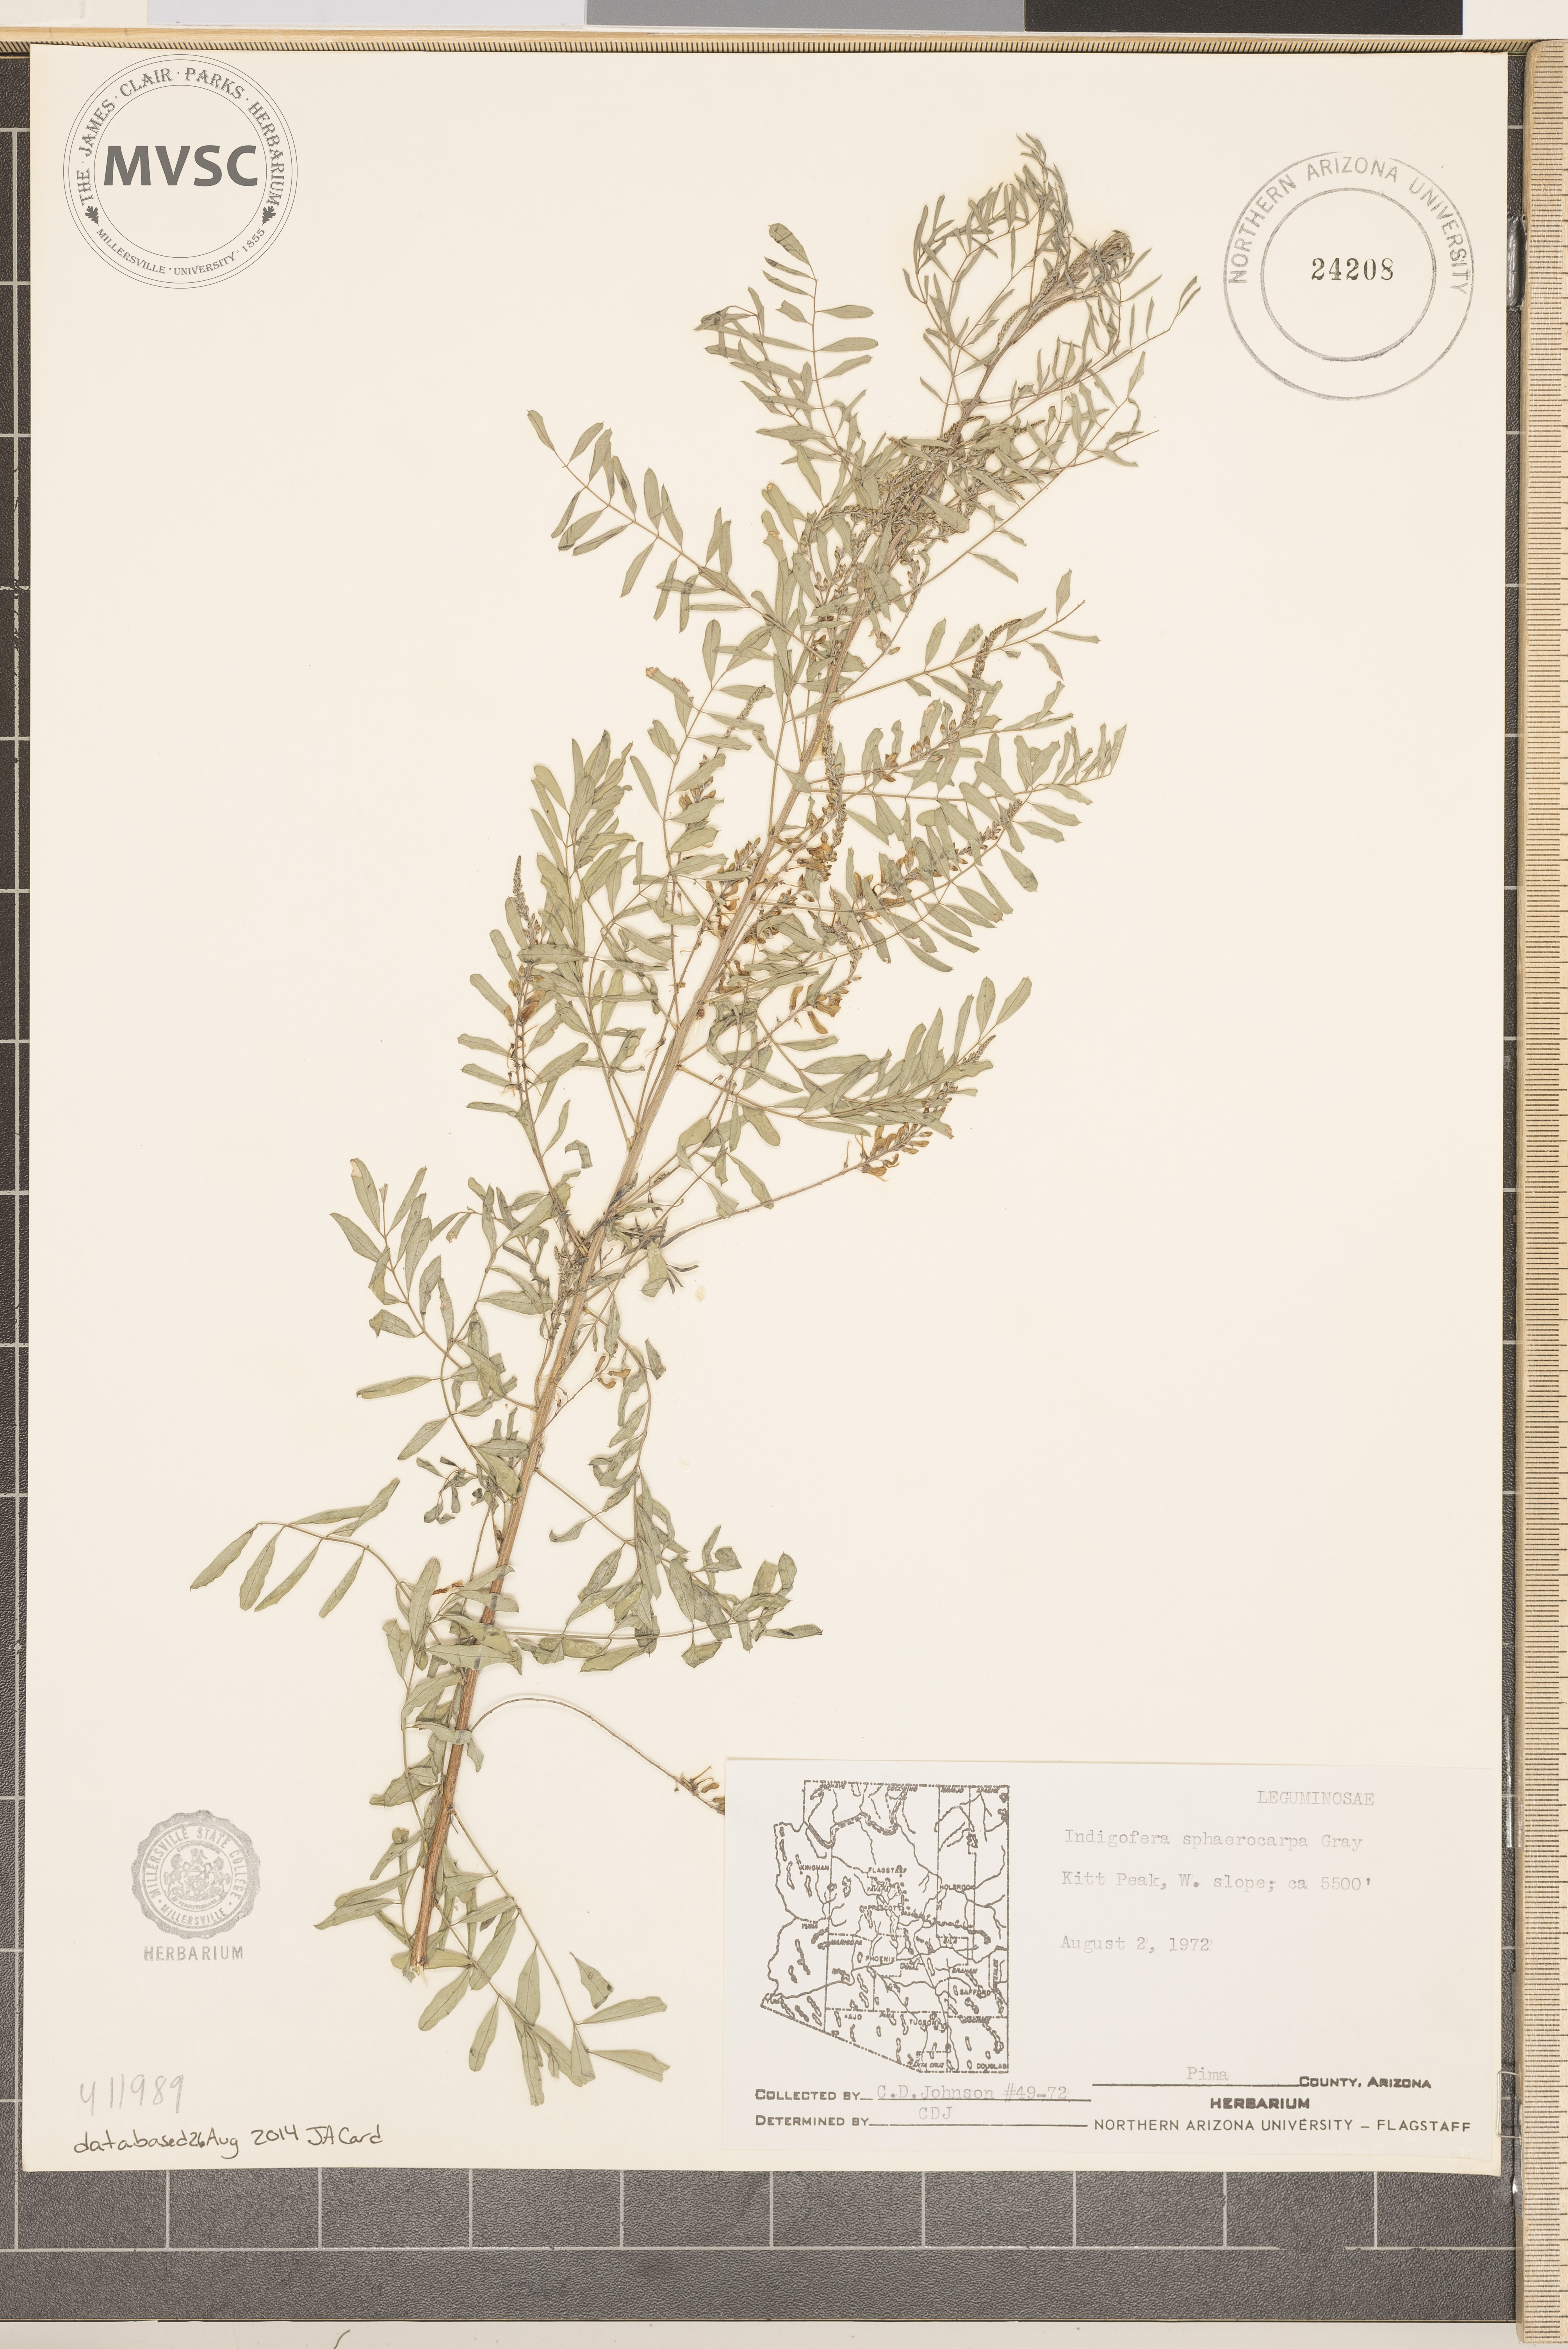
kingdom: Plantae
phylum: Tracheophyta
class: Magnoliopsida
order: Fabales
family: Fabaceae
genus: Indigofera
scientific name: Indigofera sphaerocarpa
